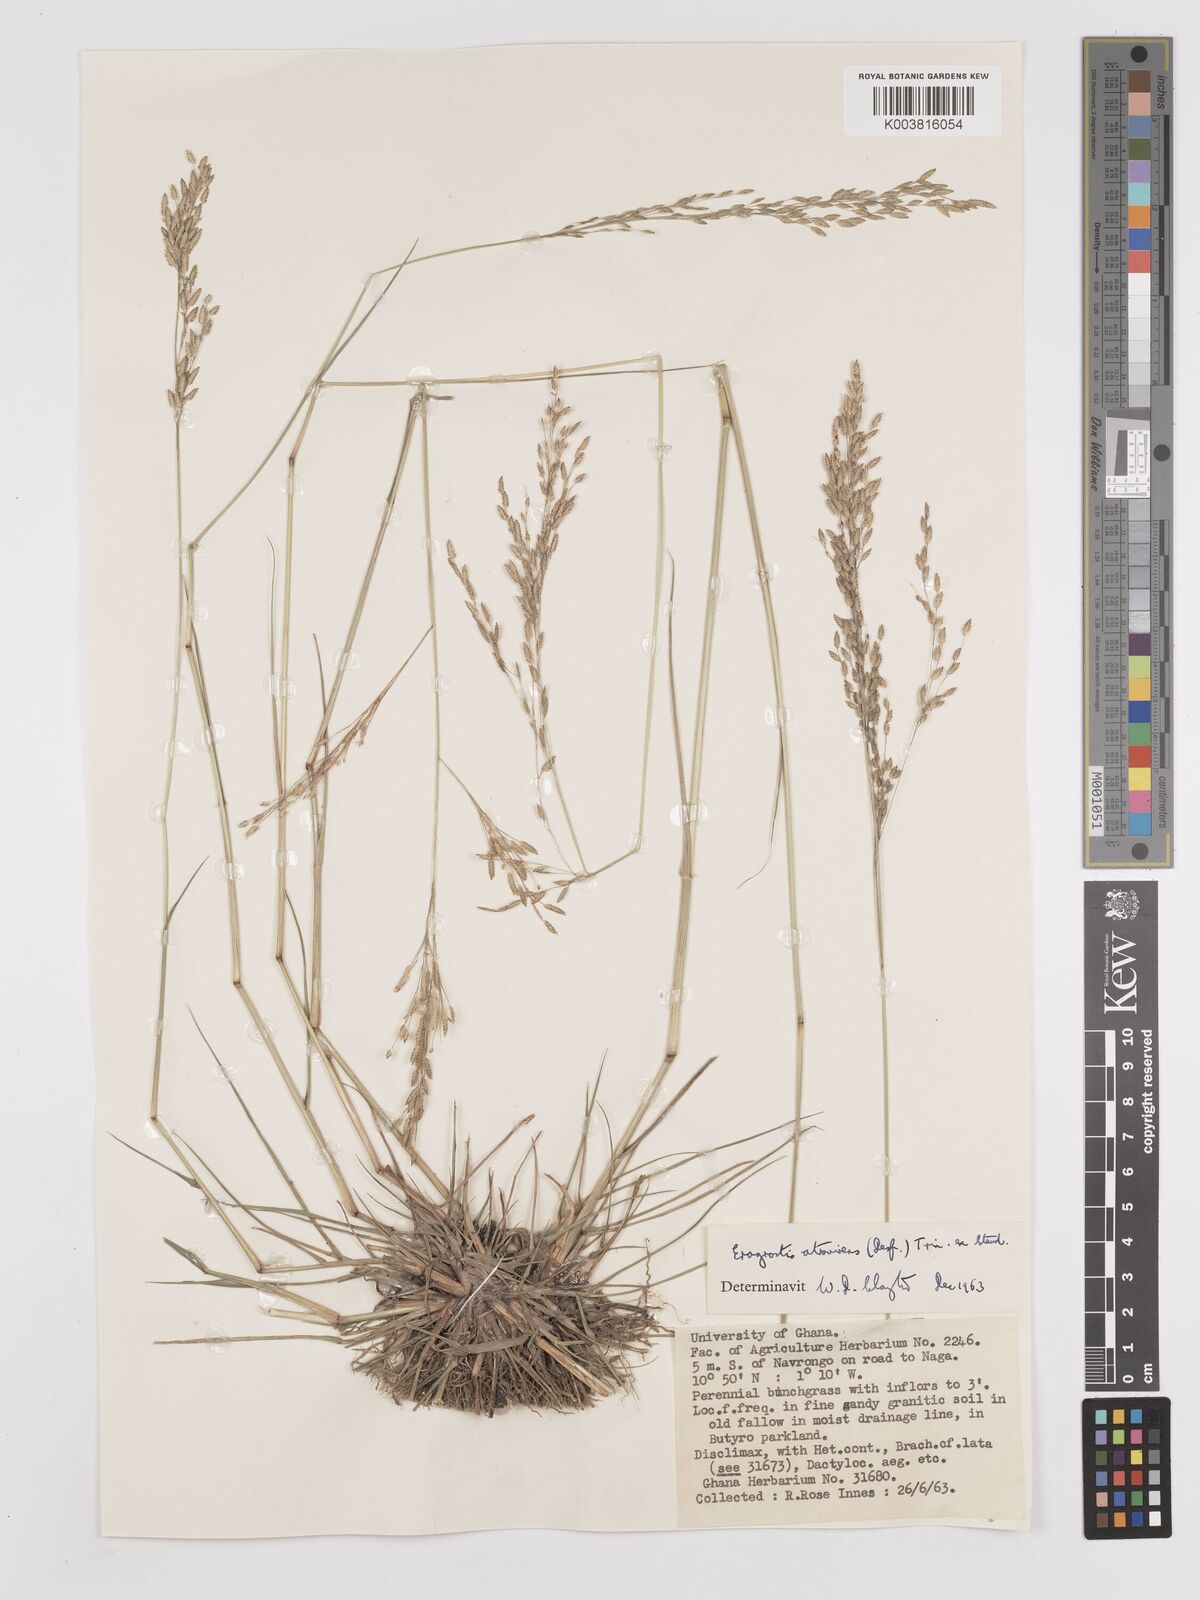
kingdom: Plantae
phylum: Tracheophyta
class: Liliopsida
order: Poales
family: Poaceae
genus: Eragrostis
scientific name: Eragrostis atrovirens
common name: Thalia lovegrass
